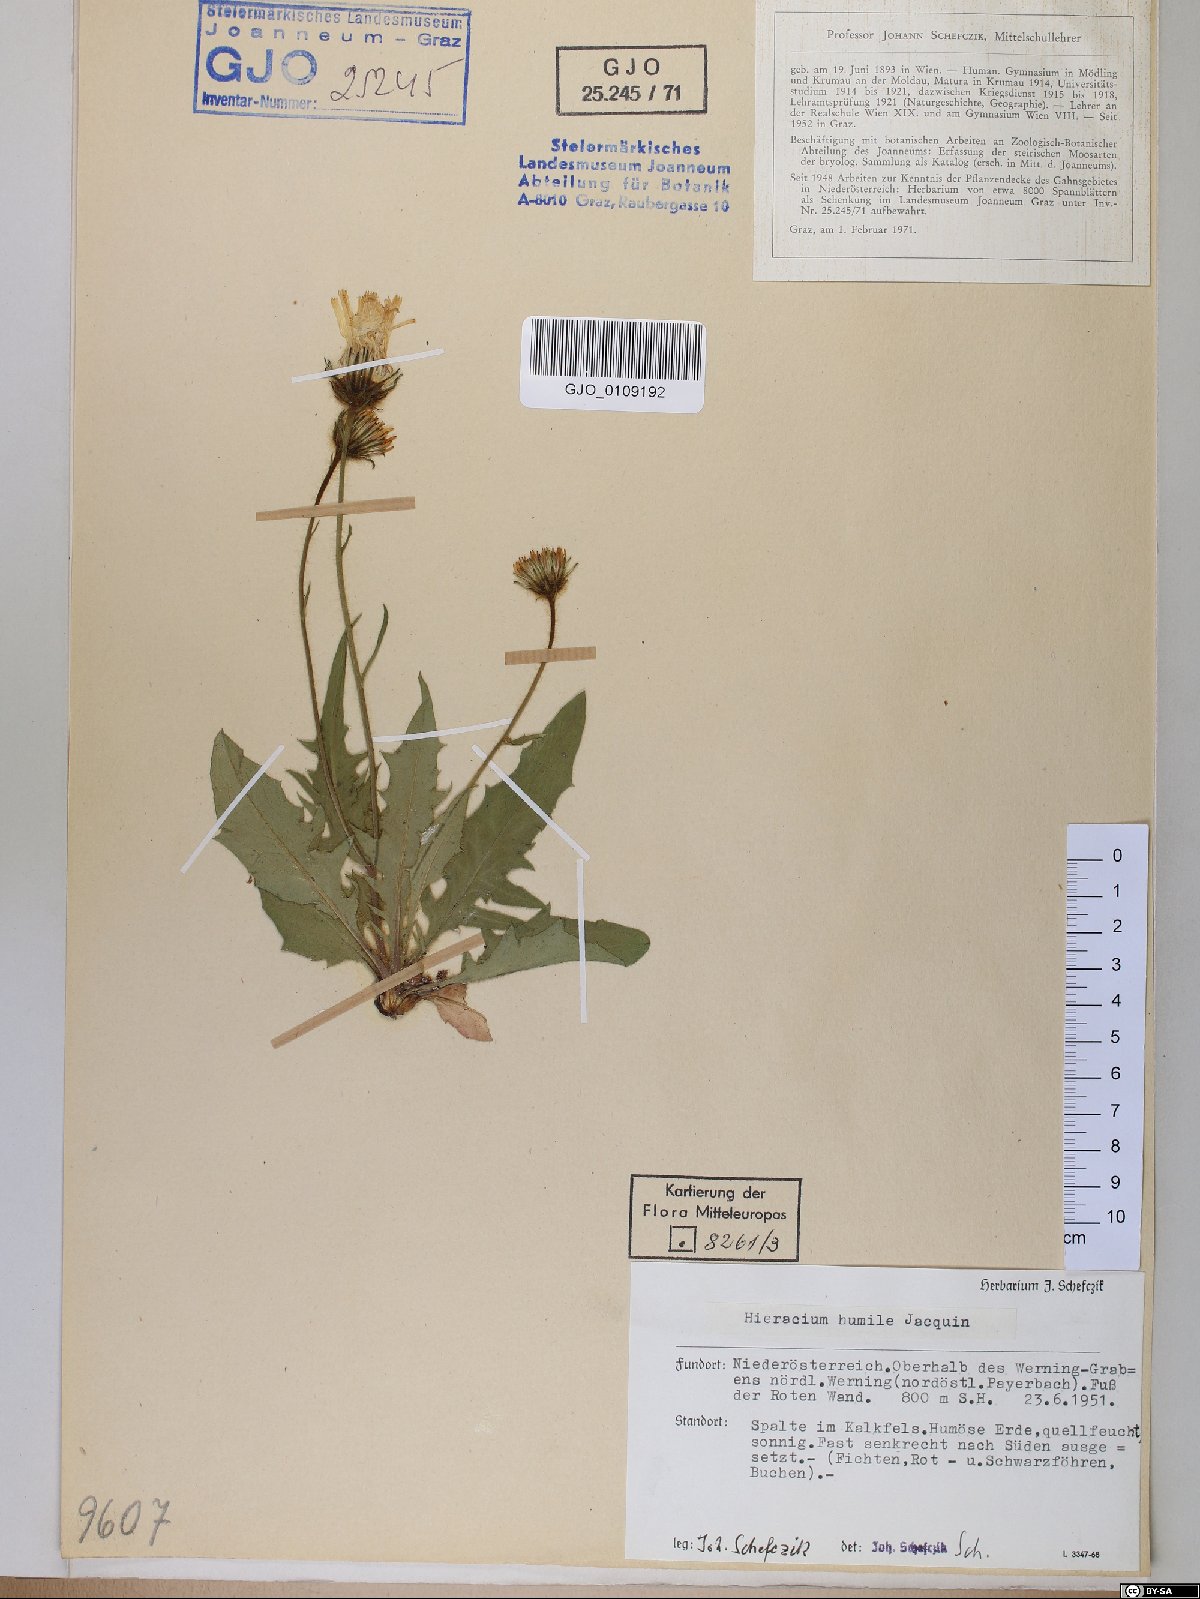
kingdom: Plantae
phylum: Tracheophyta
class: Magnoliopsida
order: Asterales
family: Asteraceae
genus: Hieracium
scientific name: Hieracium humile
